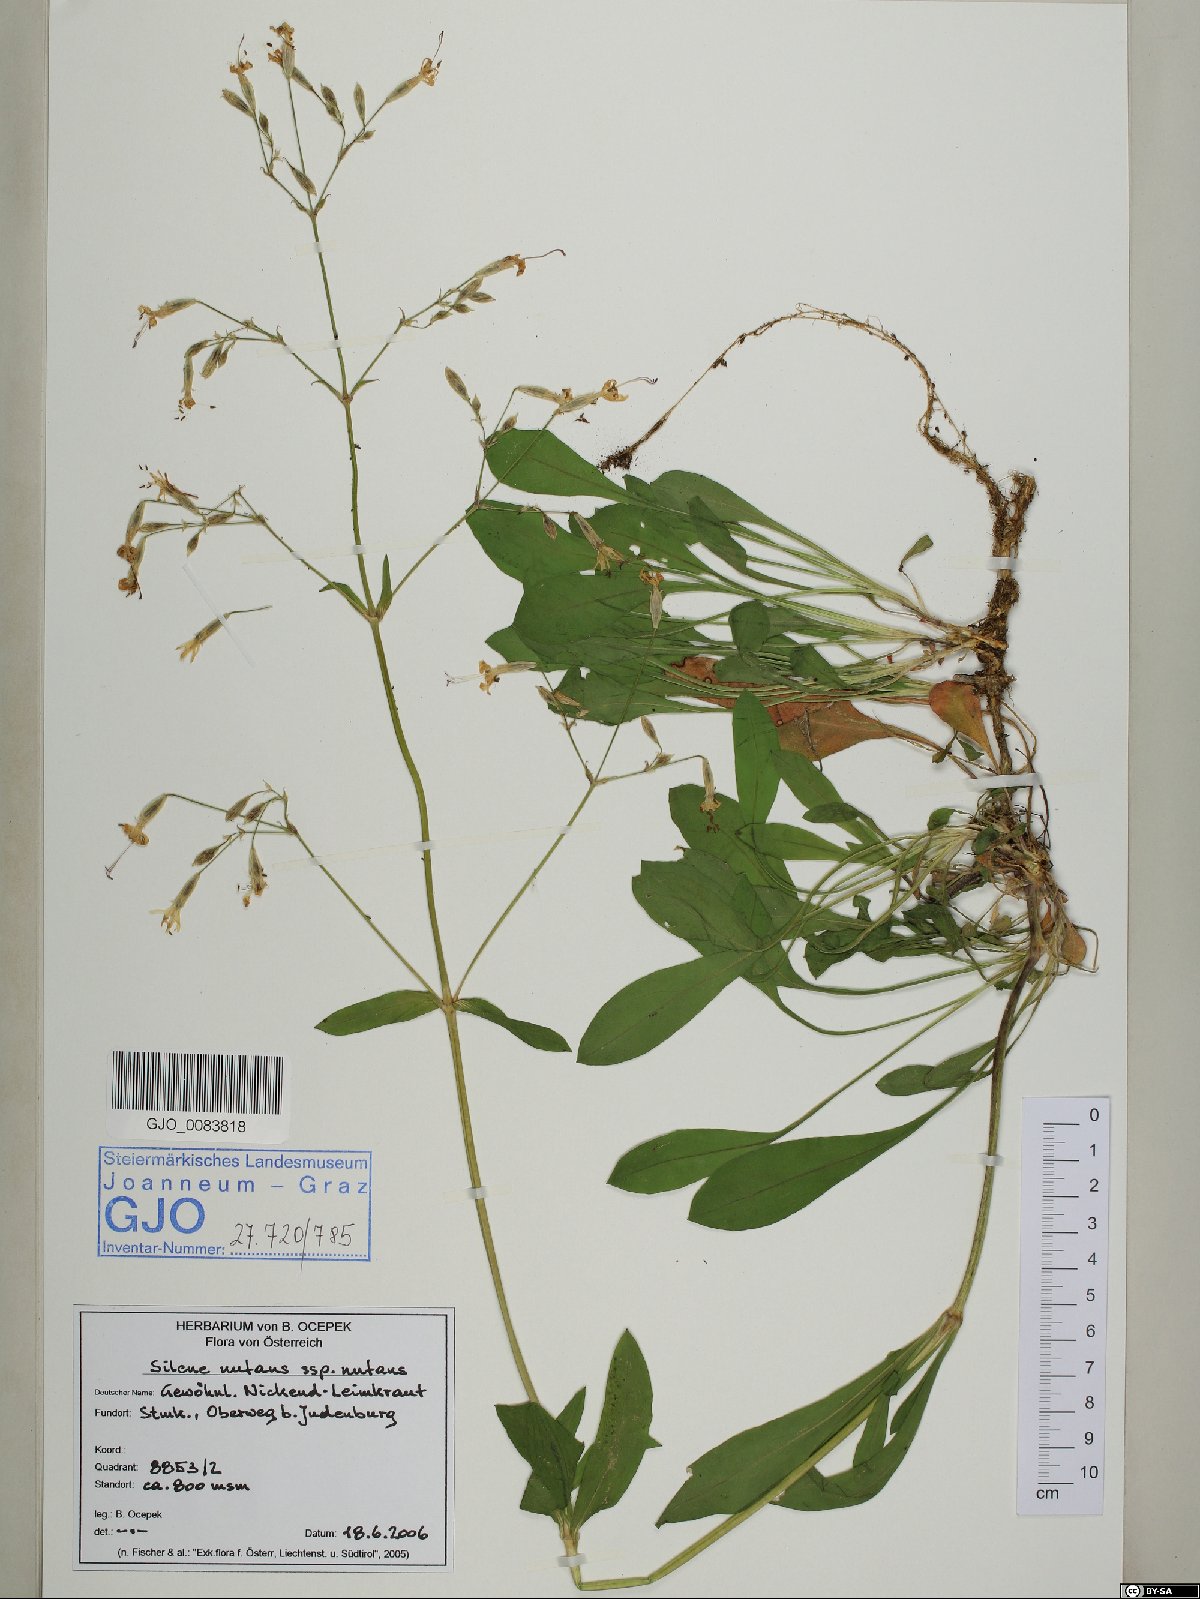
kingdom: Plantae
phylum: Tracheophyta
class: Magnoliopsida
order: Caryophyllales
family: Caryophyllaceae
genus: Silene
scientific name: Silene nutans
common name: Nottingham catchfly
